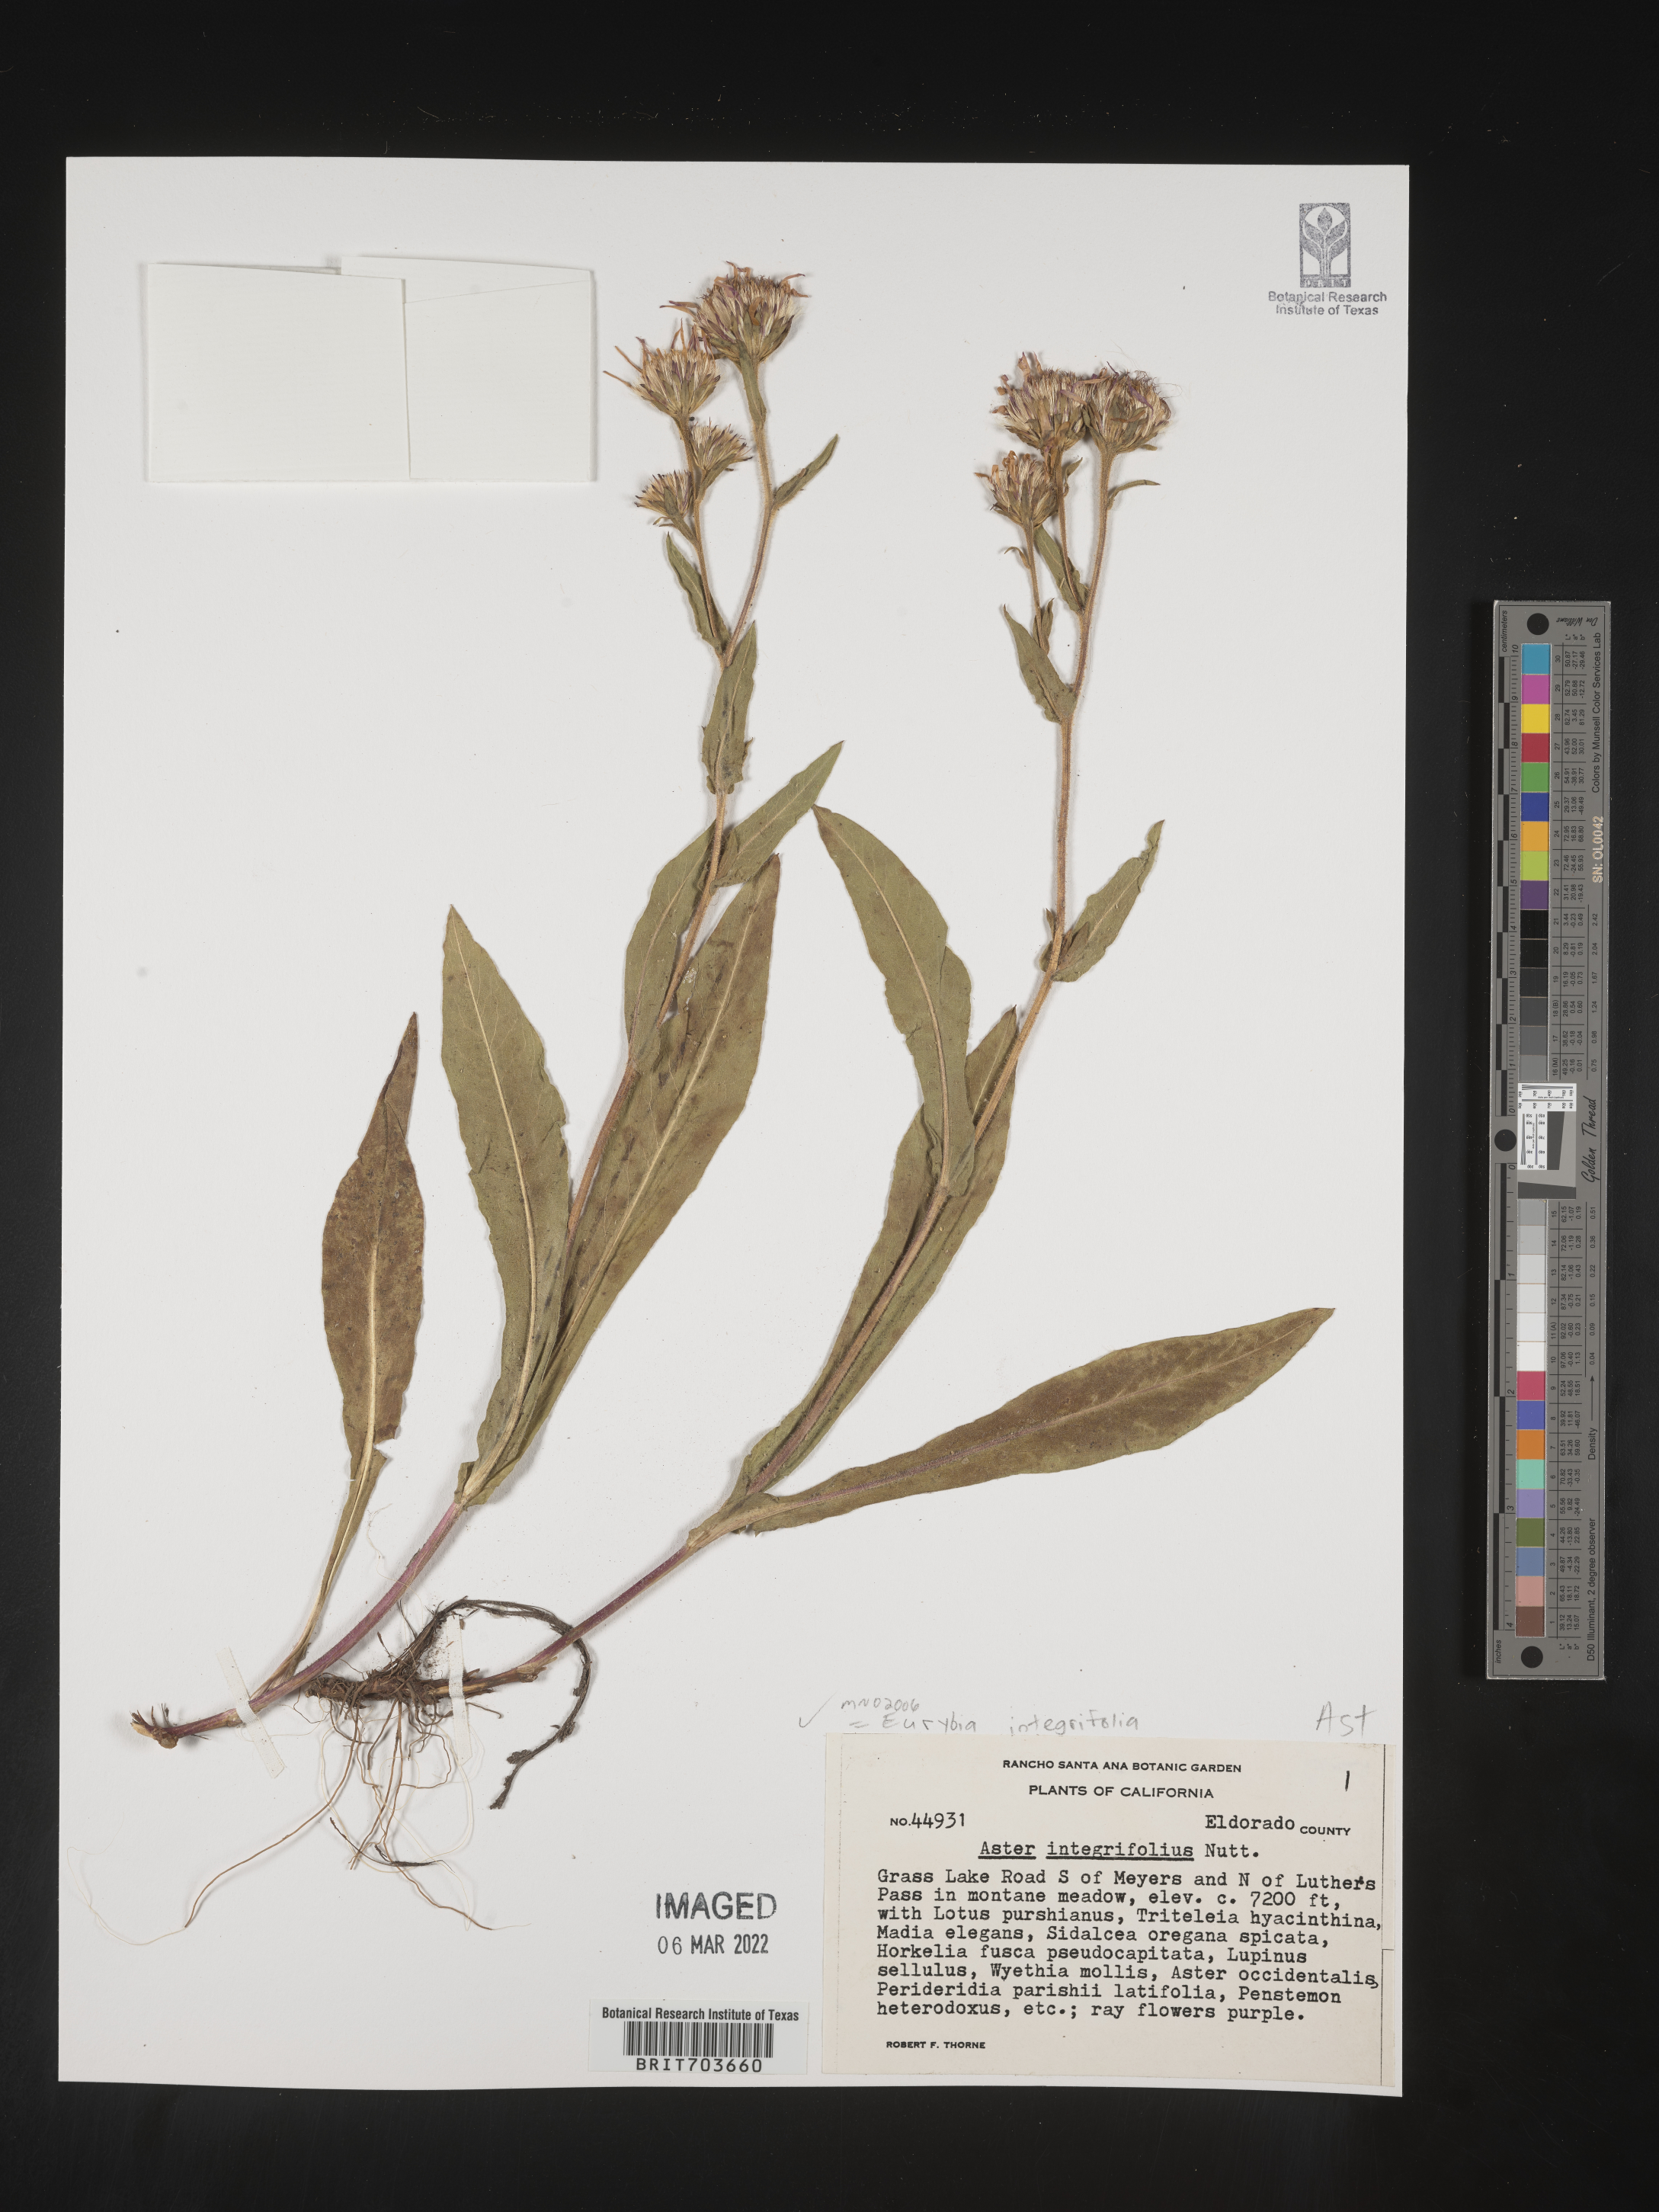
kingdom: Plantae
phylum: Tracheophyta
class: Magnoliopsida
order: Asterales
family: Asteraceae
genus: Eurybia
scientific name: Eurybia integrifolia
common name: Thick-stem aster
